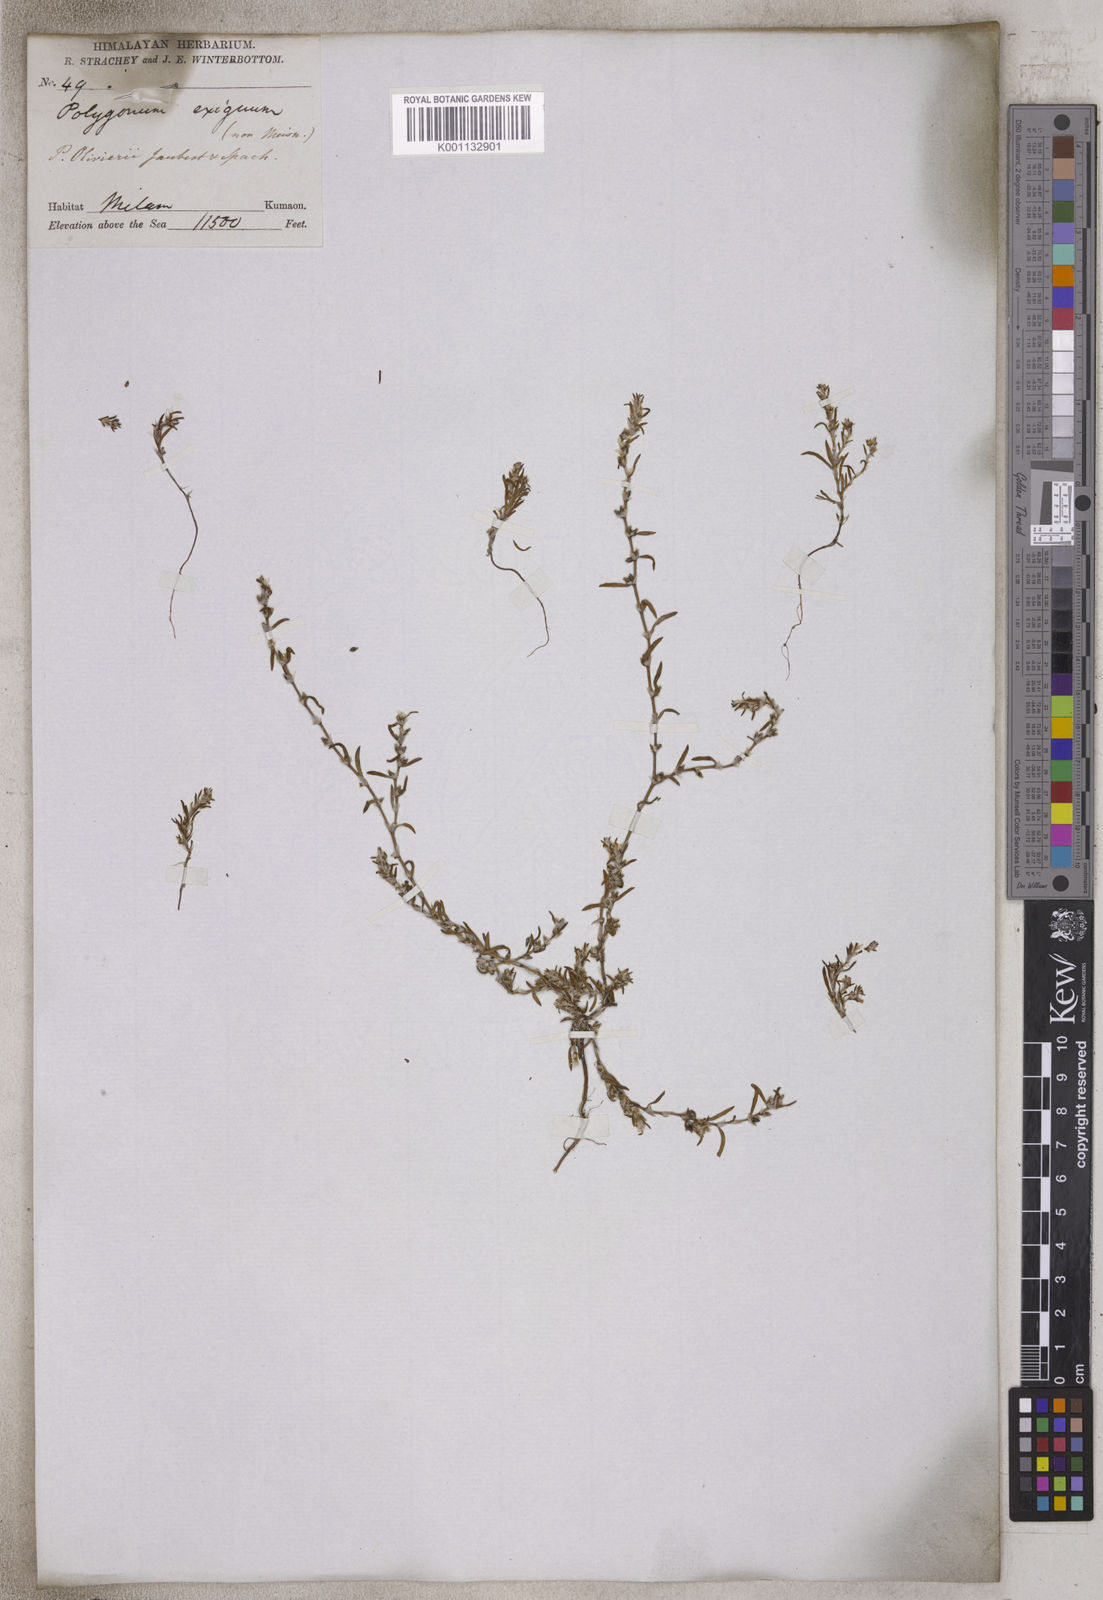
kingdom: Plantae
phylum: Tracheophyta
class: Magnoliopsida
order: Caryophyllales
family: Polygonaceae
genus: Polygonum
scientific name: Polygonum
